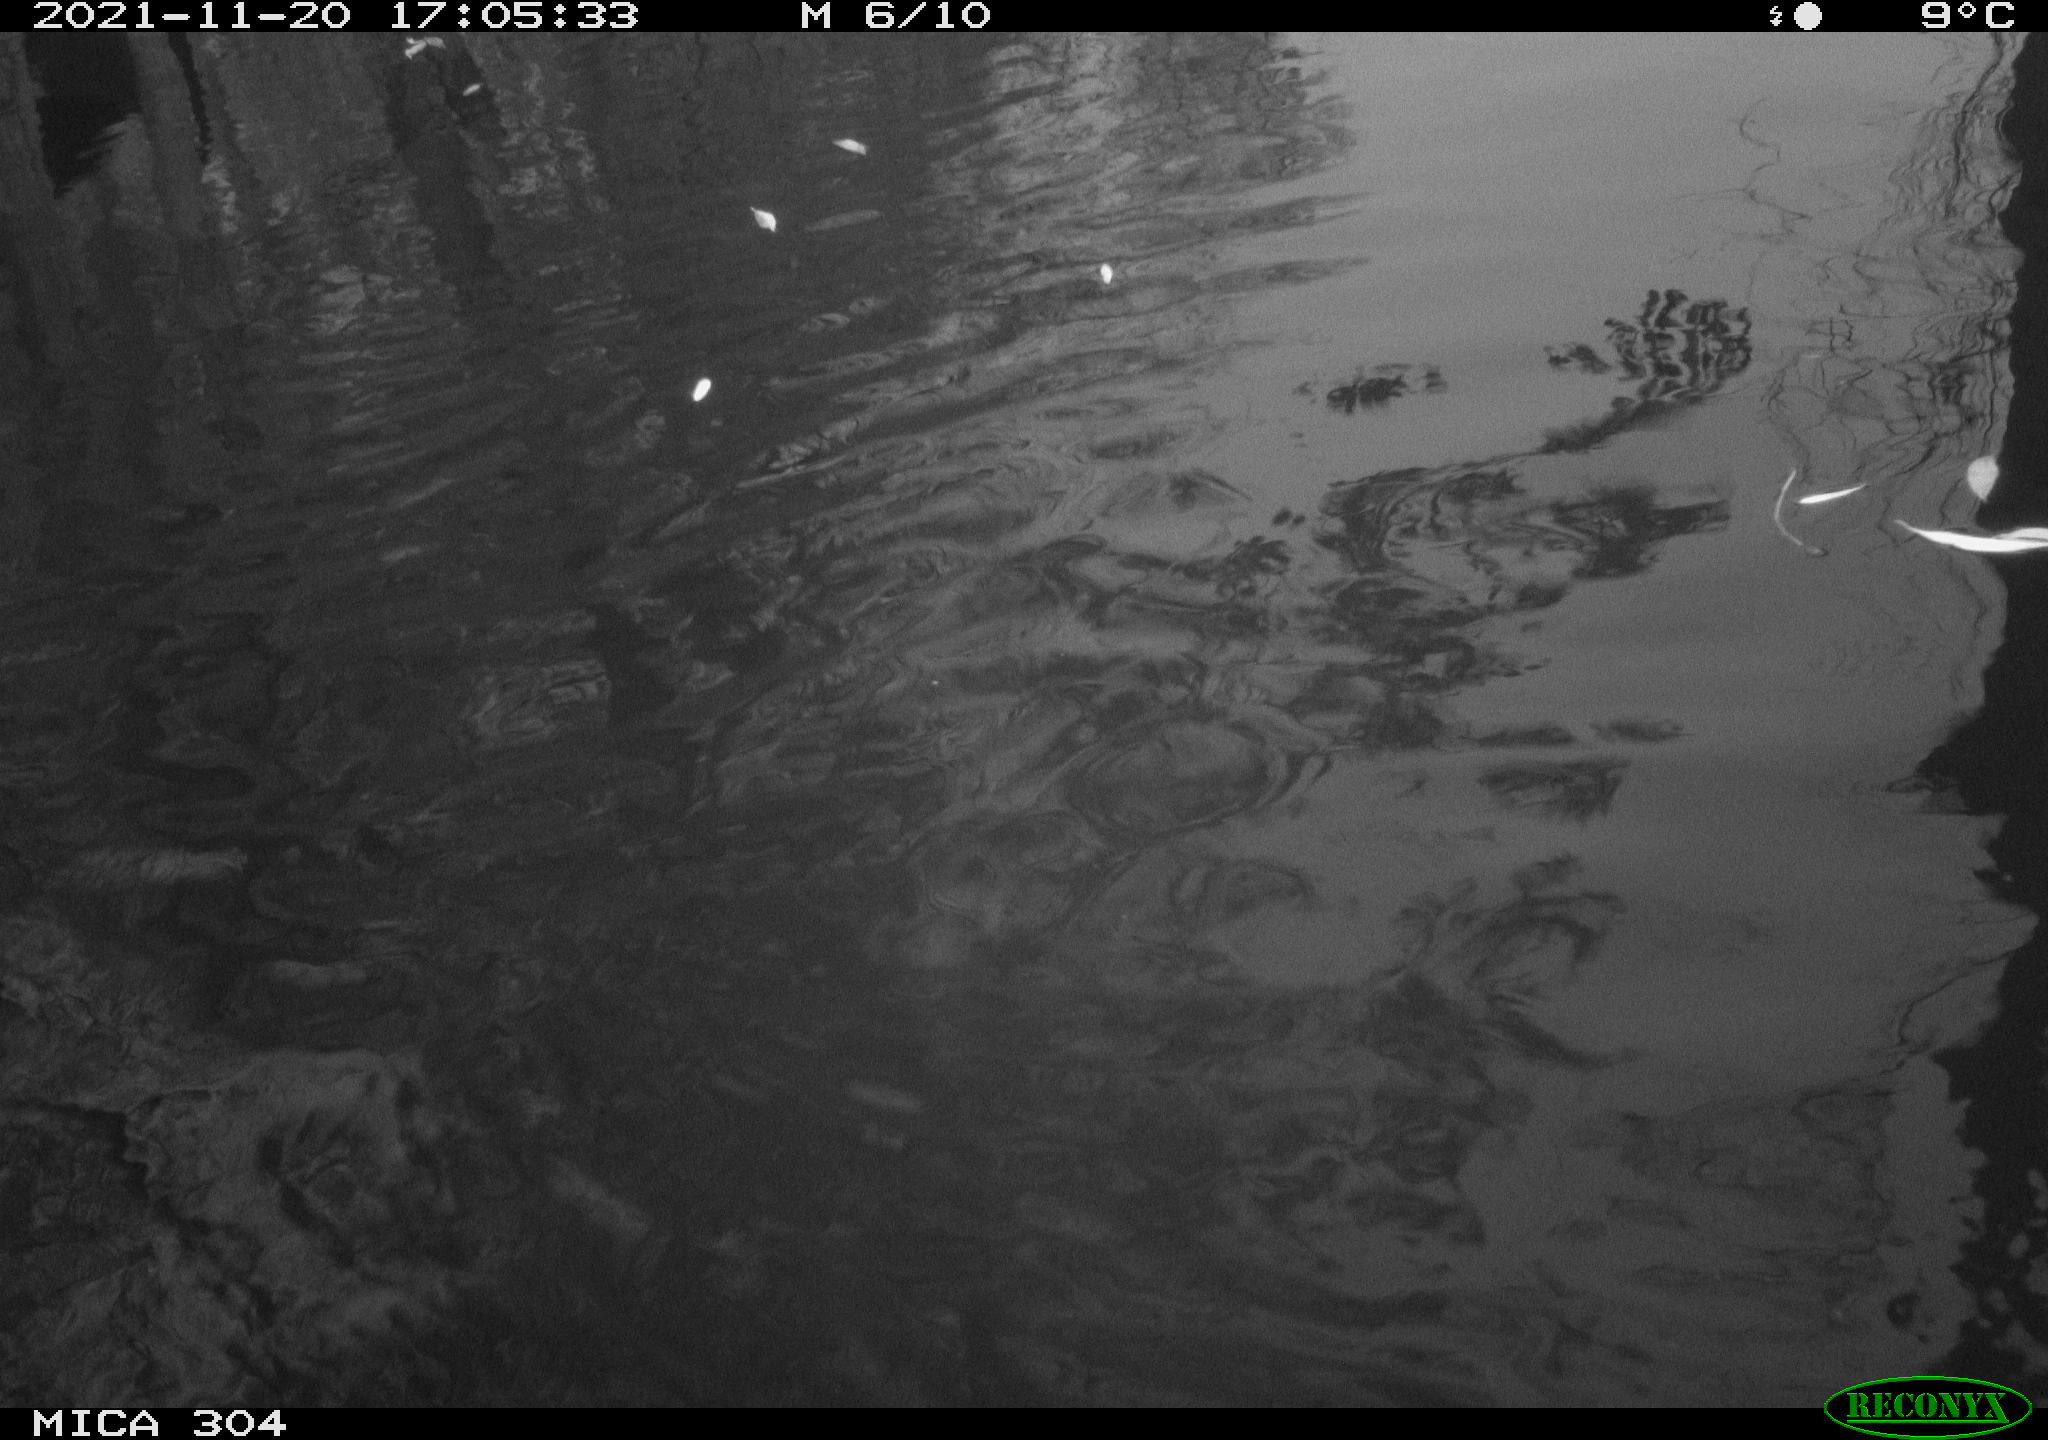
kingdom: Animalia
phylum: Chordata
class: Aves
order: Gruiformes
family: Rallidae
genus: Fulica
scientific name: Fulica atra
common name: Eurasian coot
